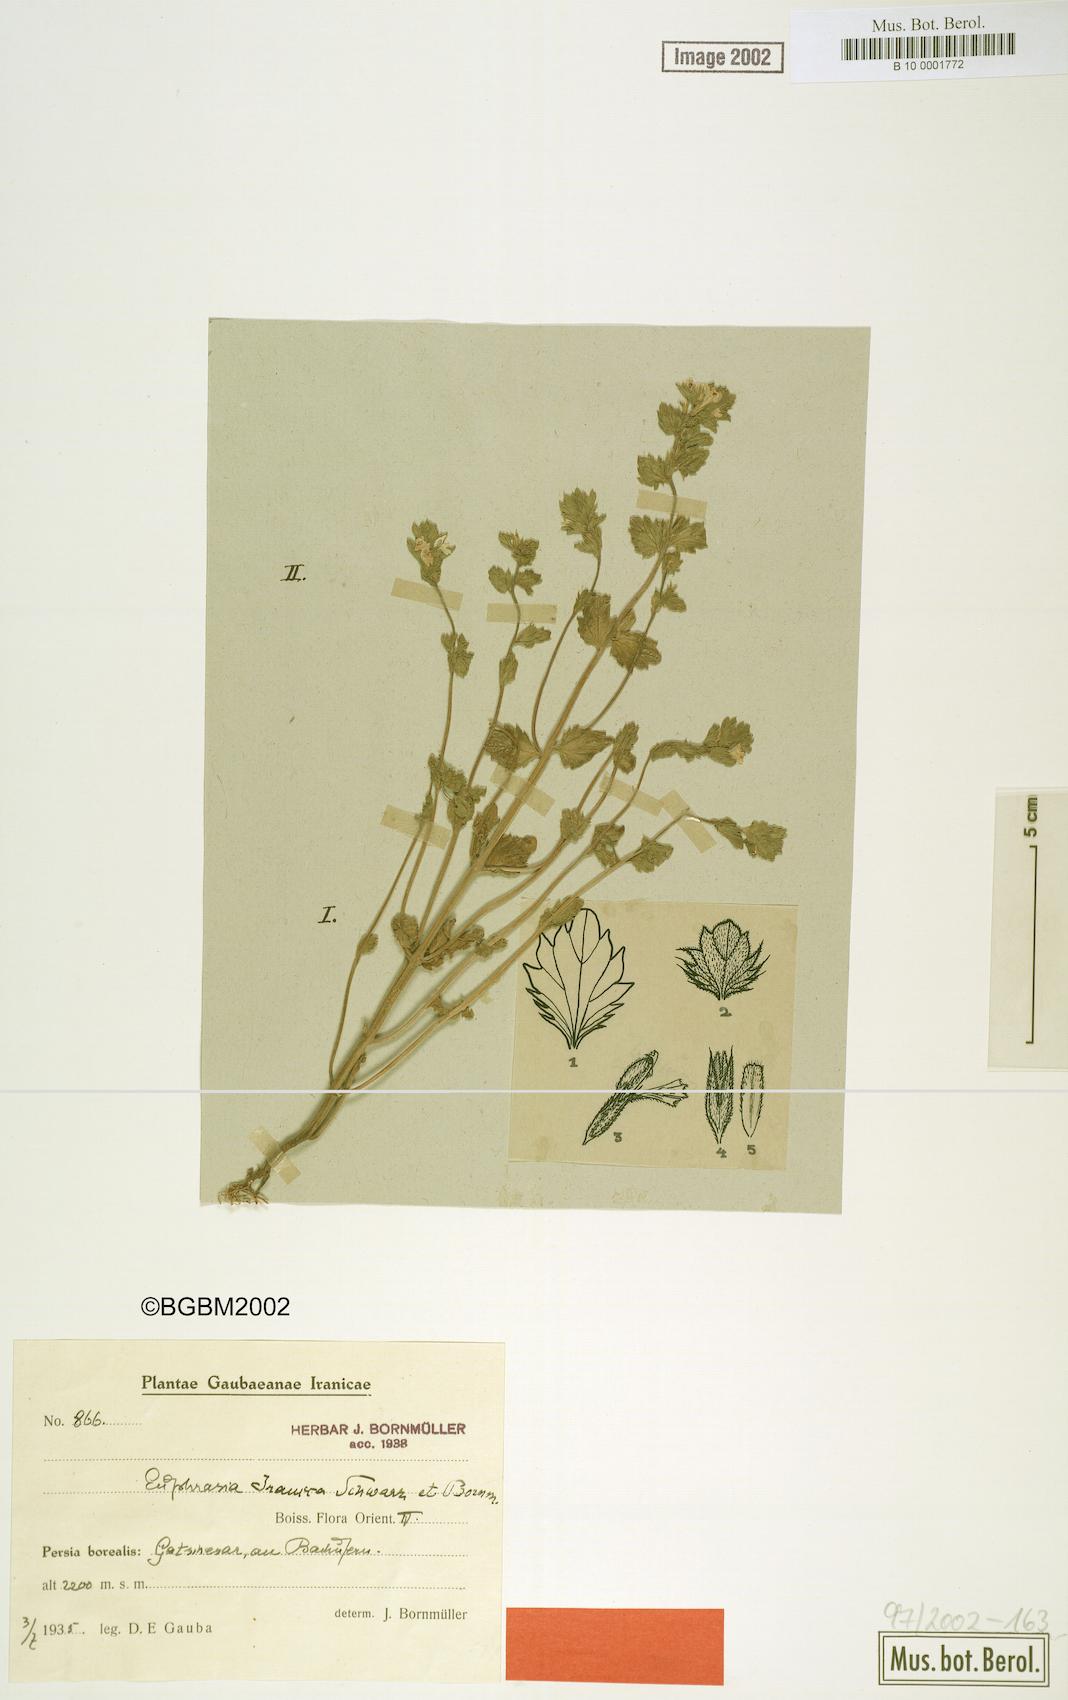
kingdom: Plantae
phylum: Tracheophyta
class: Magnoliopsida
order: Lamiales
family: Orobanchaceae
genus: Euphrasia
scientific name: Euphrasia pectinata
